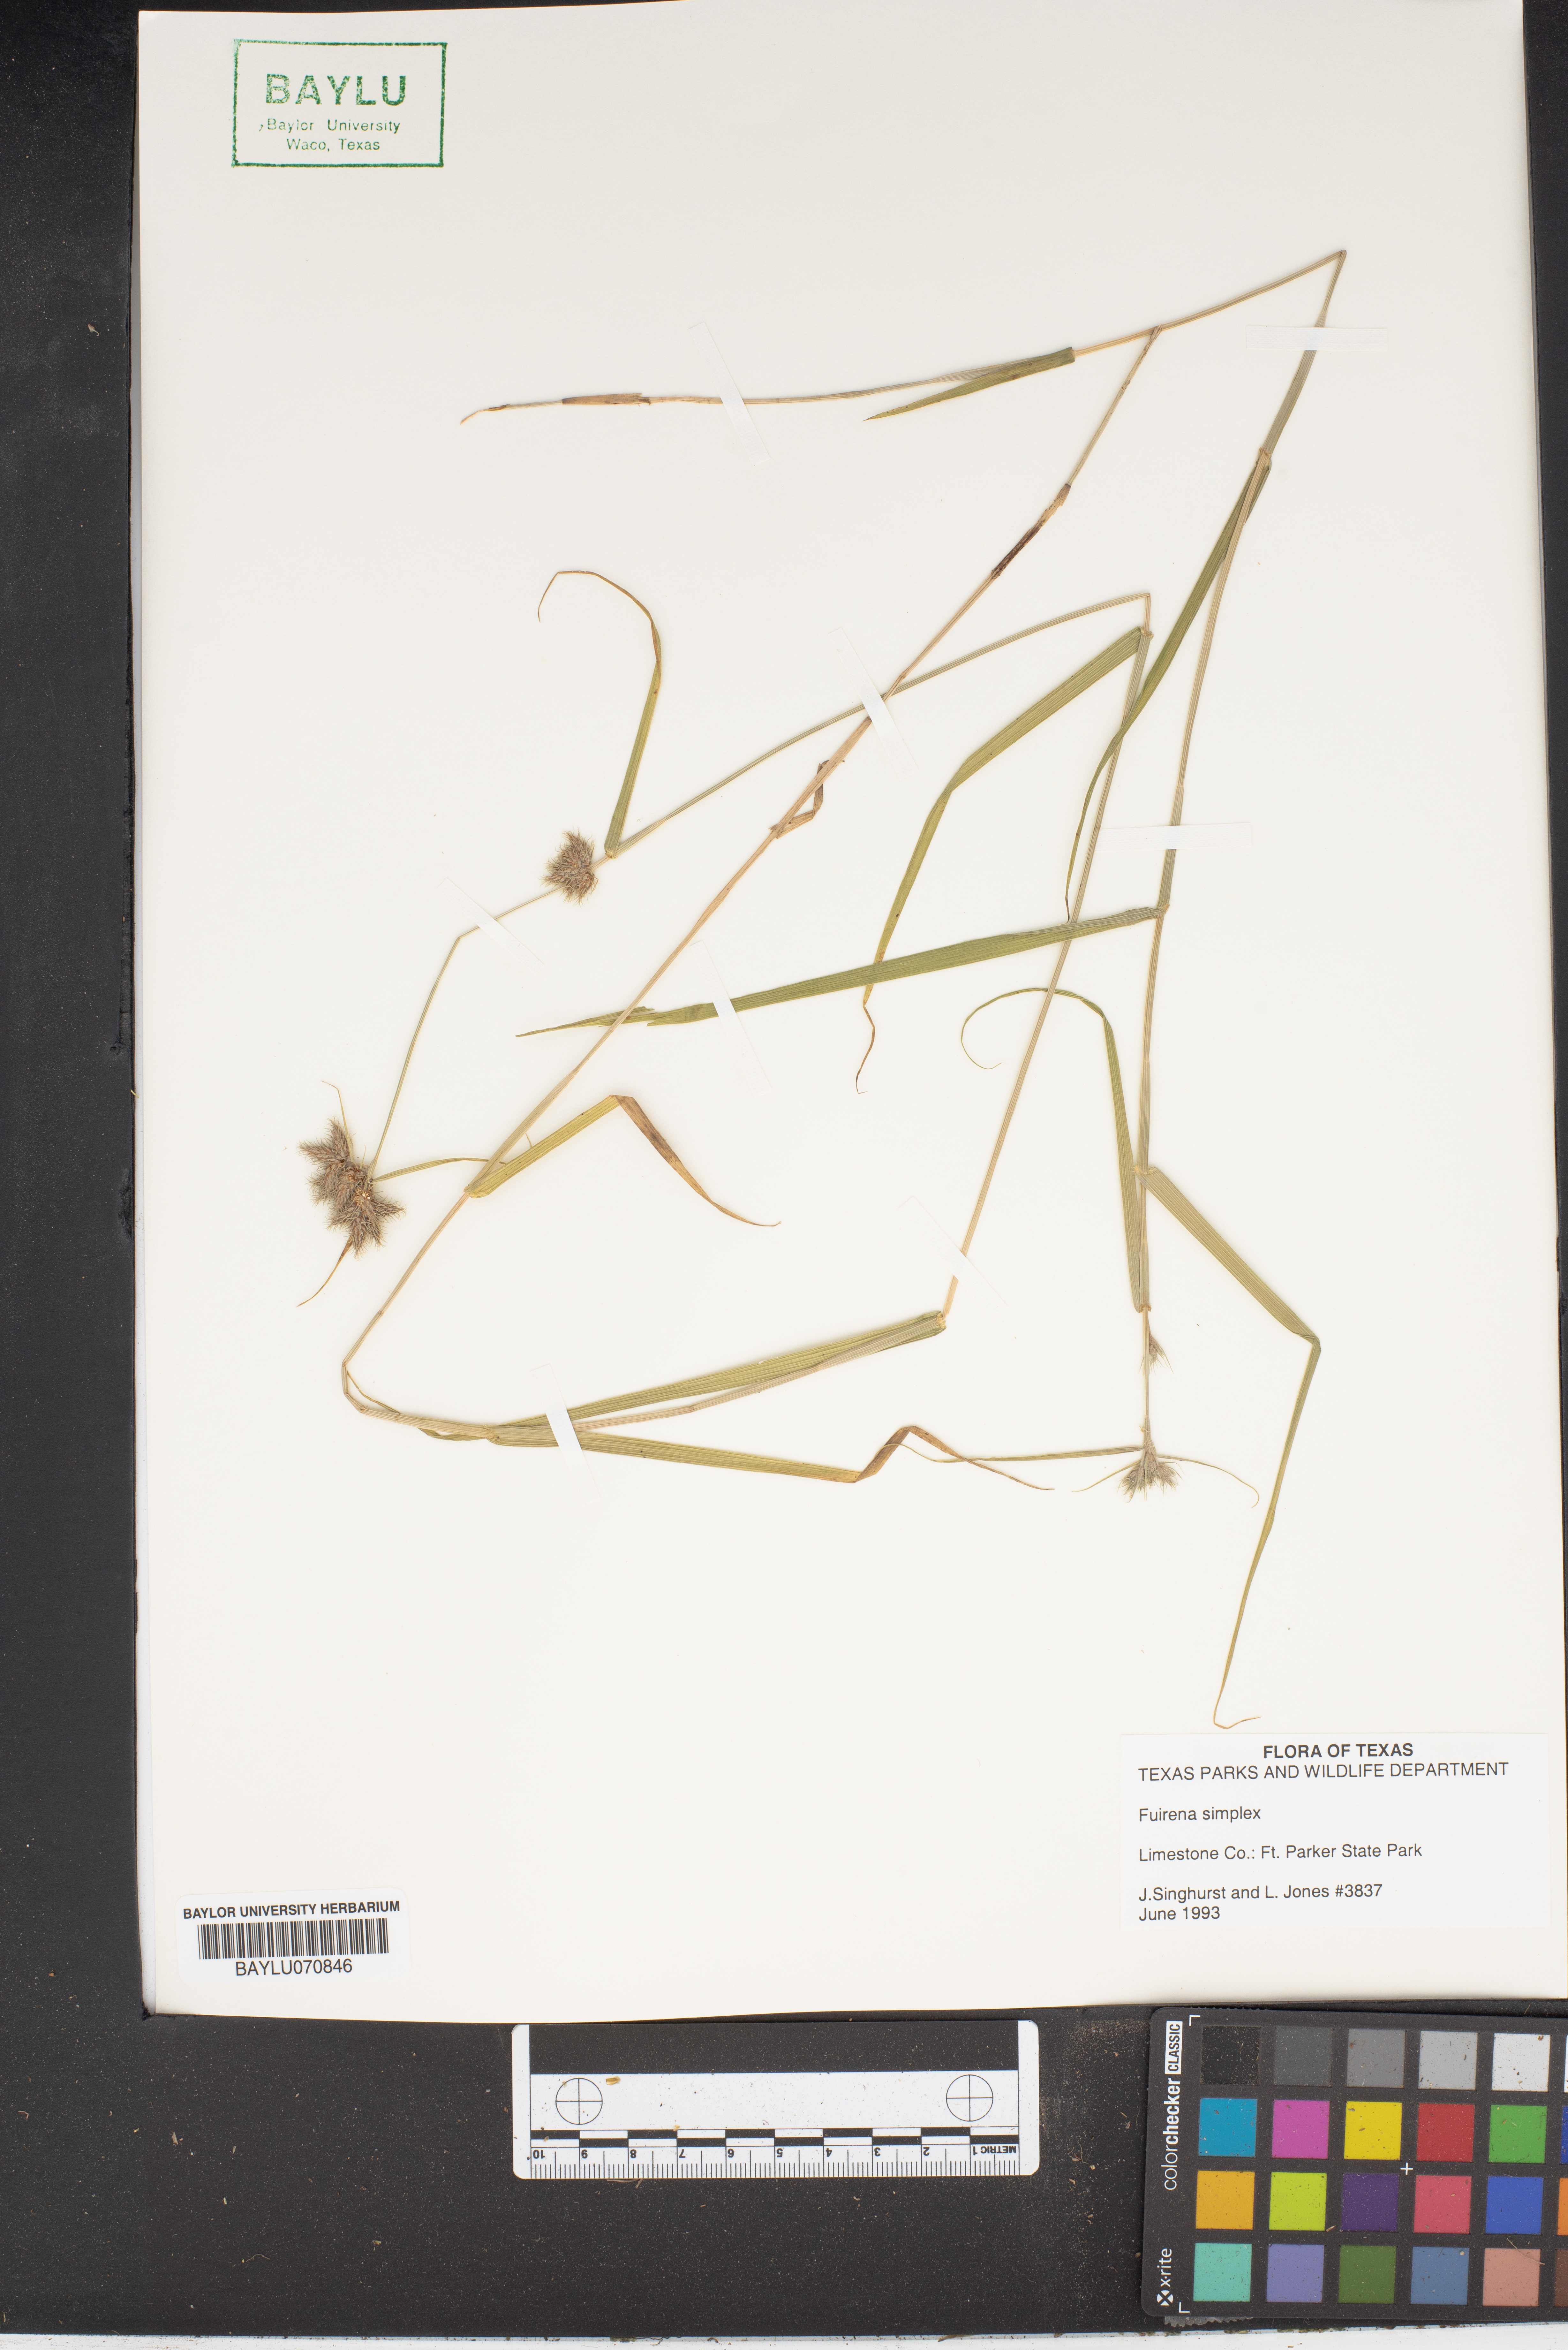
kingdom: Plantae
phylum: Tracheophyta
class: Liliopsida
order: Poales
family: Cyperaceae
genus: Fuirena
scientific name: Fuirena simplex
